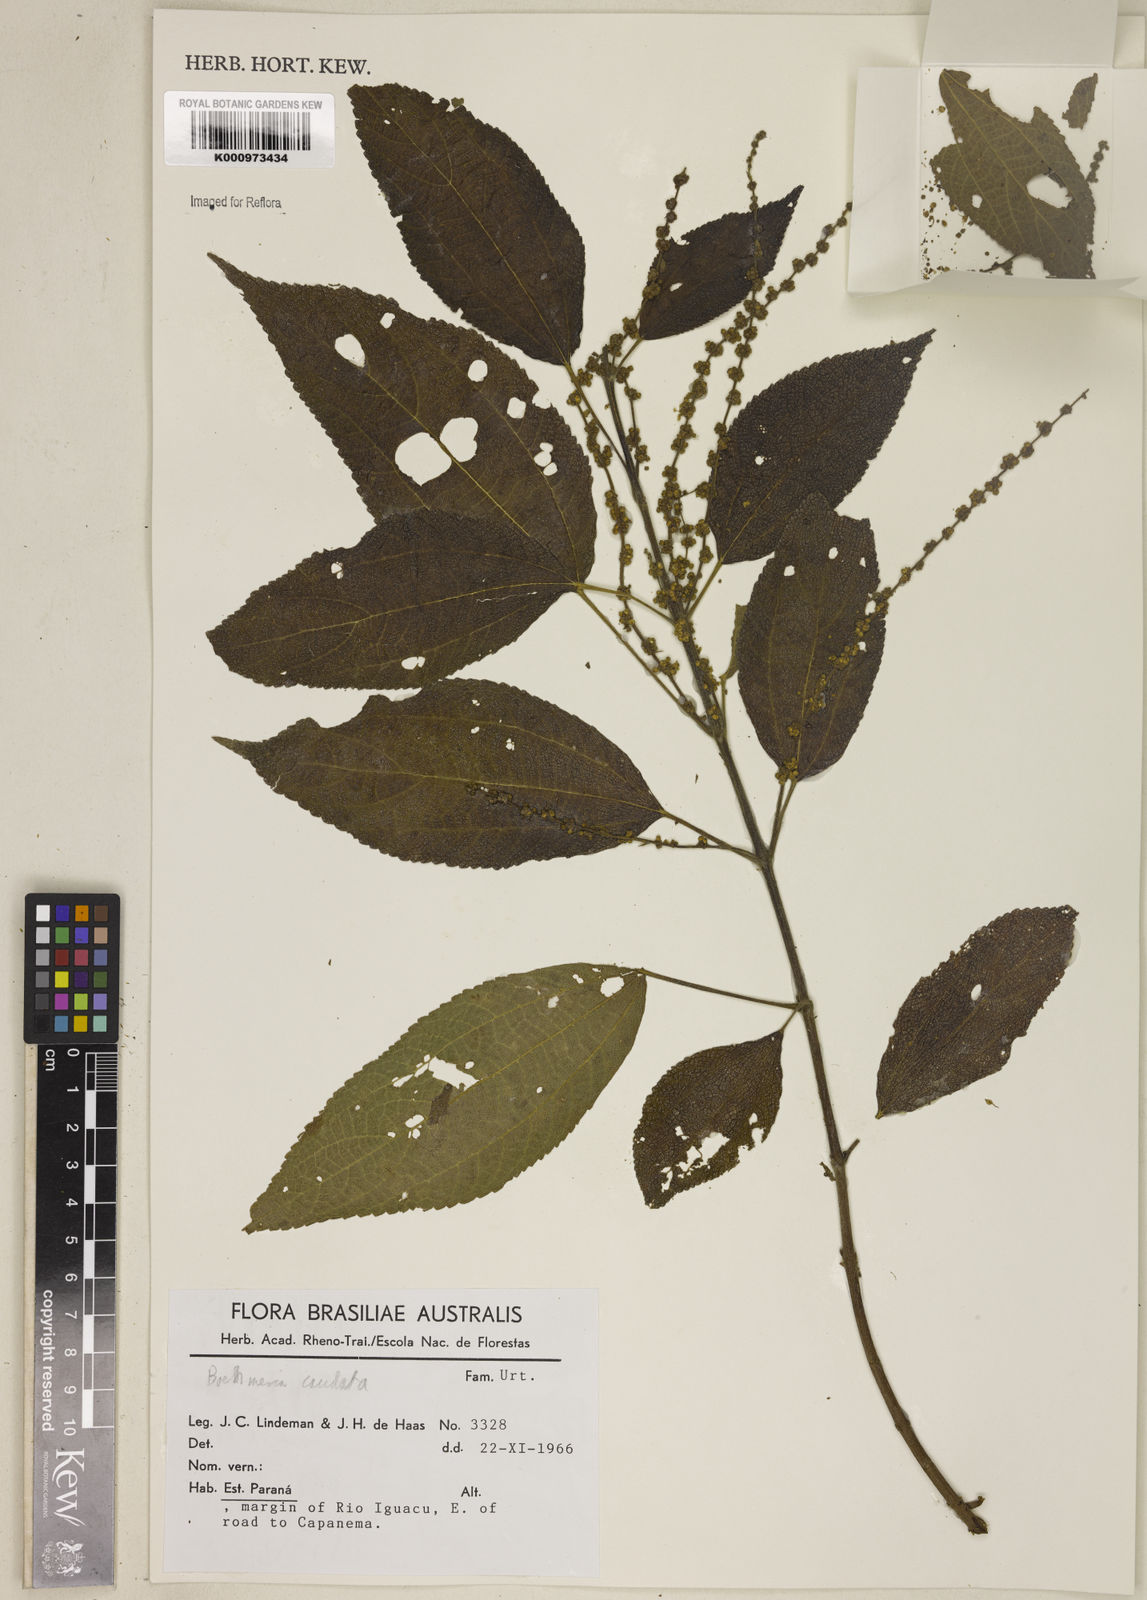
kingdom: Plantae
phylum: Tracheophyta
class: Magnoliopsida
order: Rosales
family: Urticaceae
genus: Boehmeria
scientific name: Boehmeria caudata
